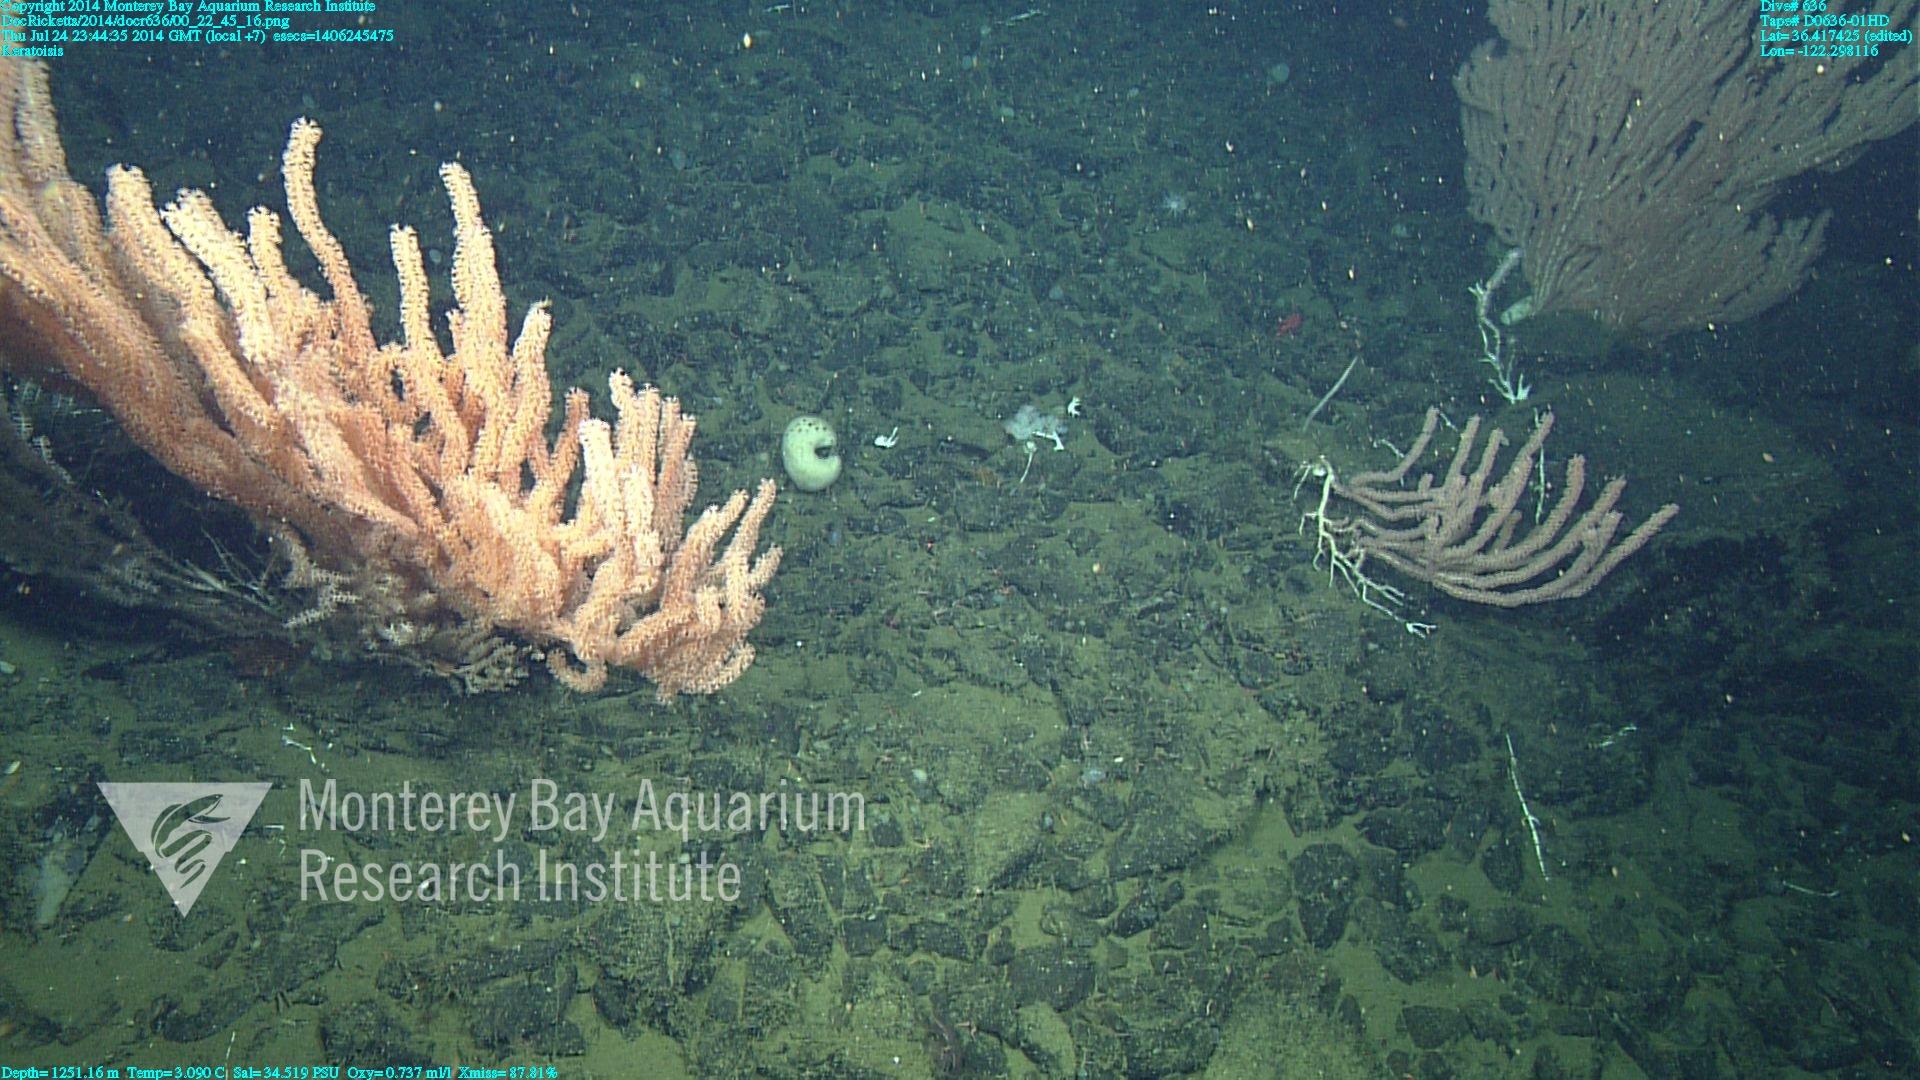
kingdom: Animalia
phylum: Cnidaria
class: Anthozoa
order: Scleralcyonacea
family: Keratoisididae
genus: Keratoisis
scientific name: Keratoisis
